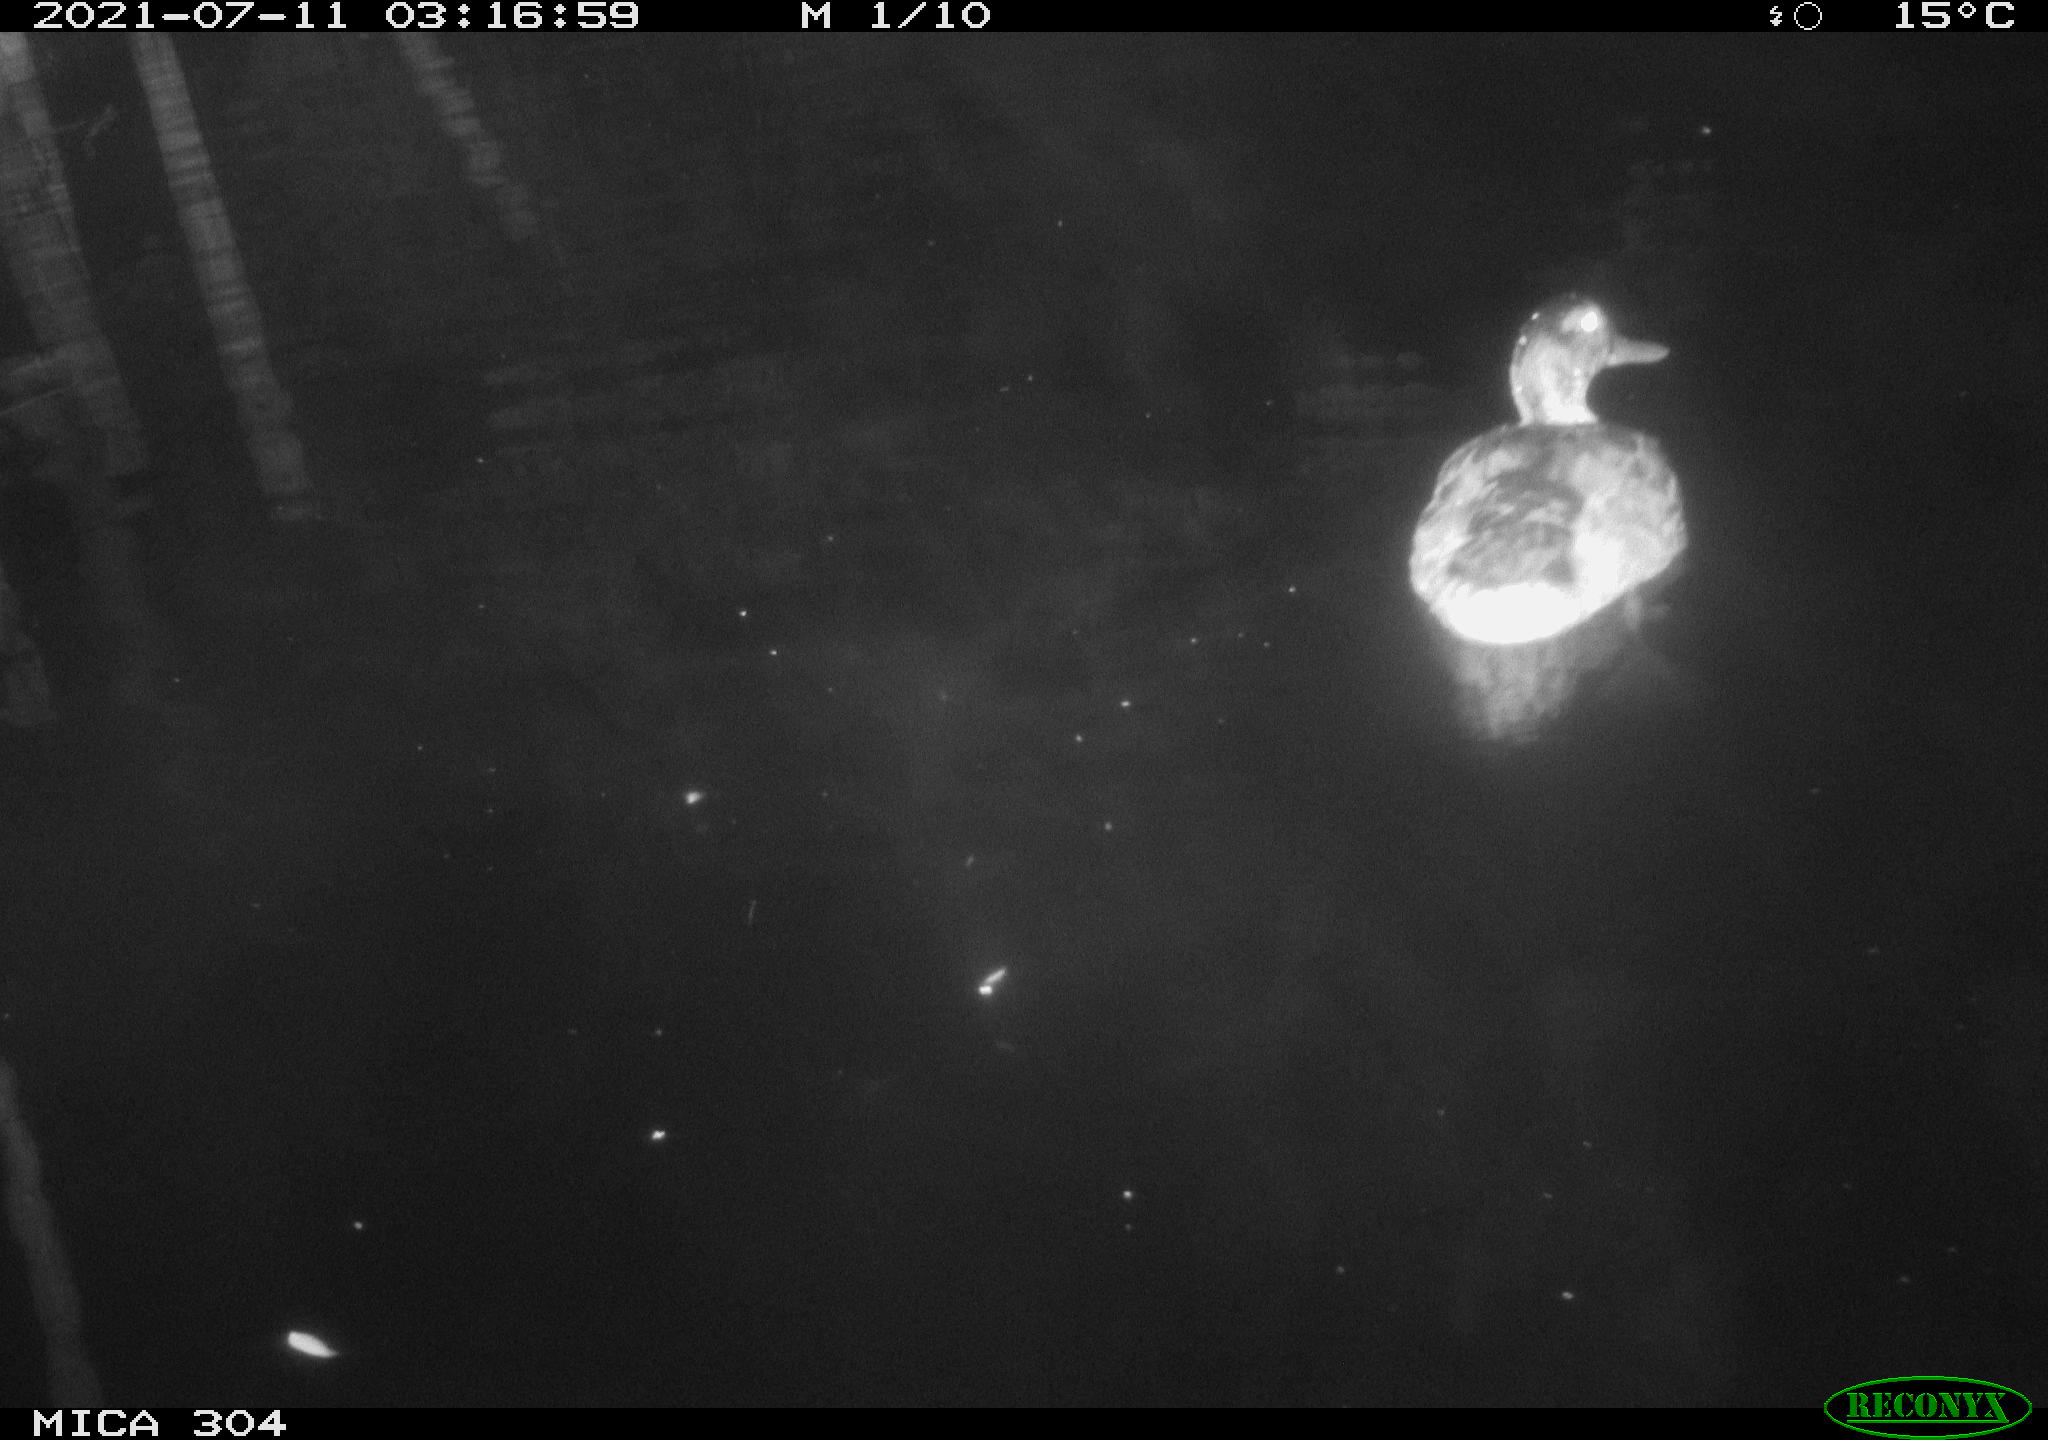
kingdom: Animalia
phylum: Chordata
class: Aves
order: Anseriformes
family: Anatidae
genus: Anas
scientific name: Anas platyrhynchos
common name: Mallard
